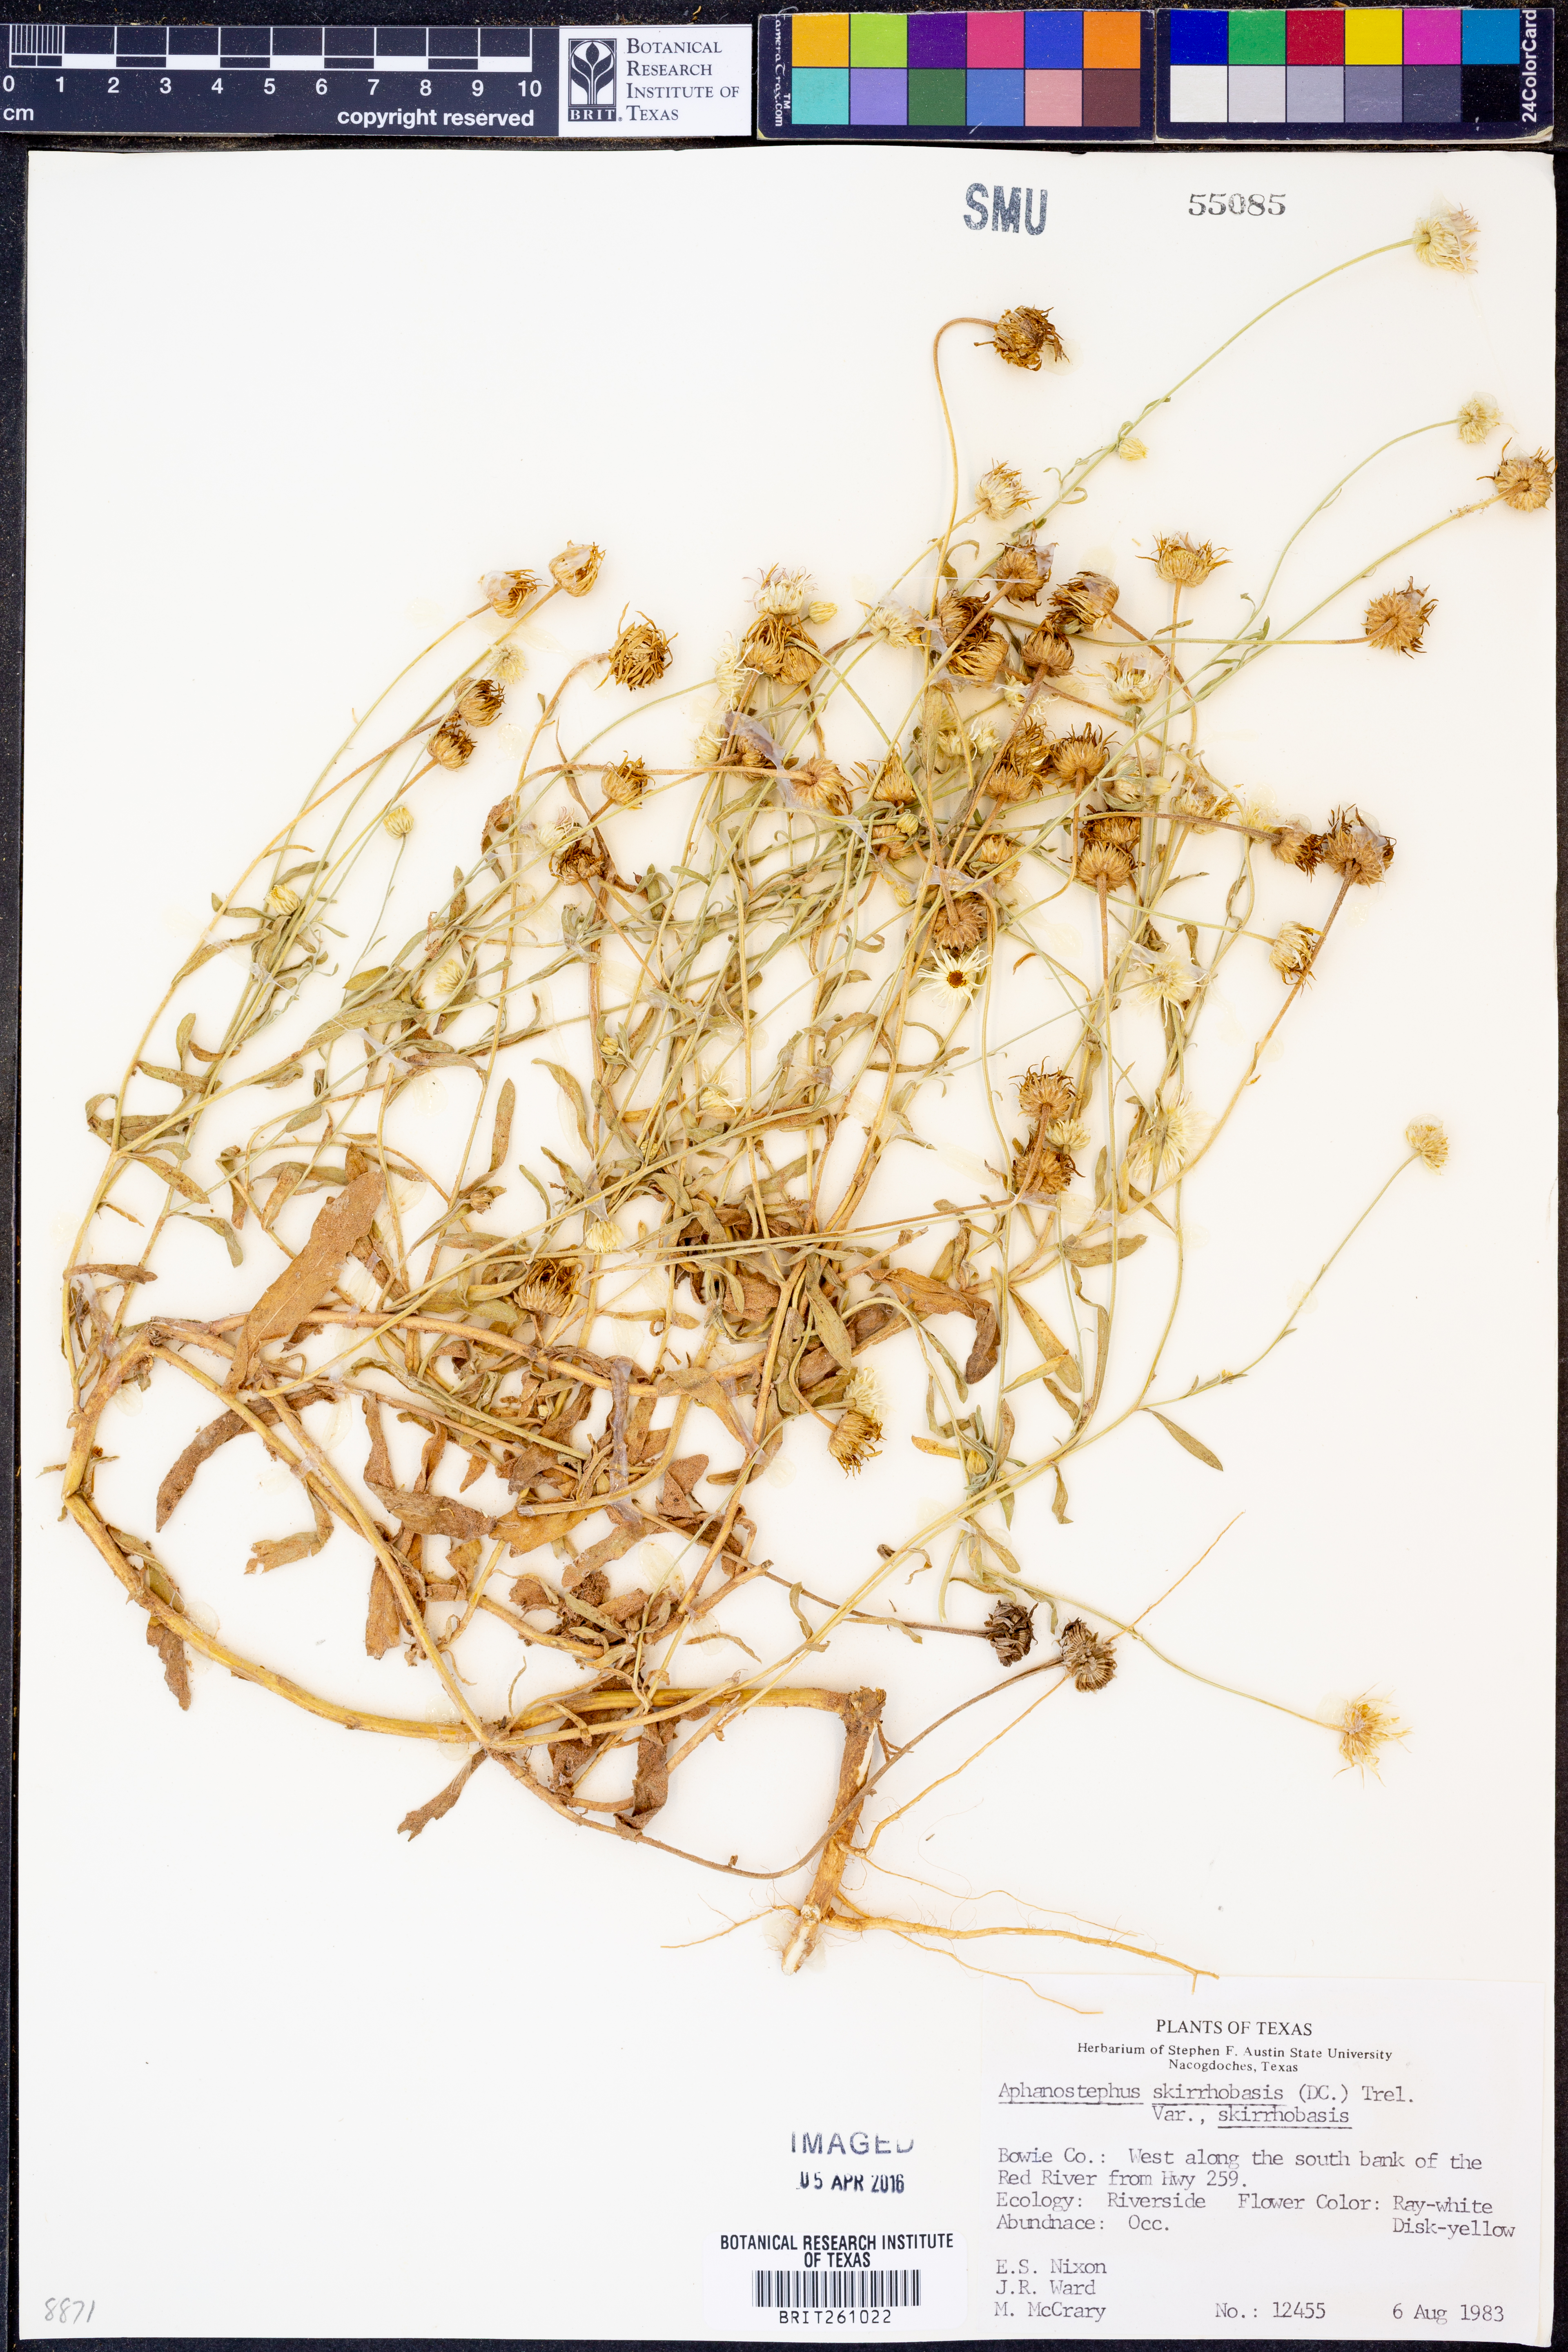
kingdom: Plantae
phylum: Tracheophyta
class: Magnoliopsida
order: Asterales
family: Asteraceae
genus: Aphanostephus
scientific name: Aphanostephus skirrhobasis
